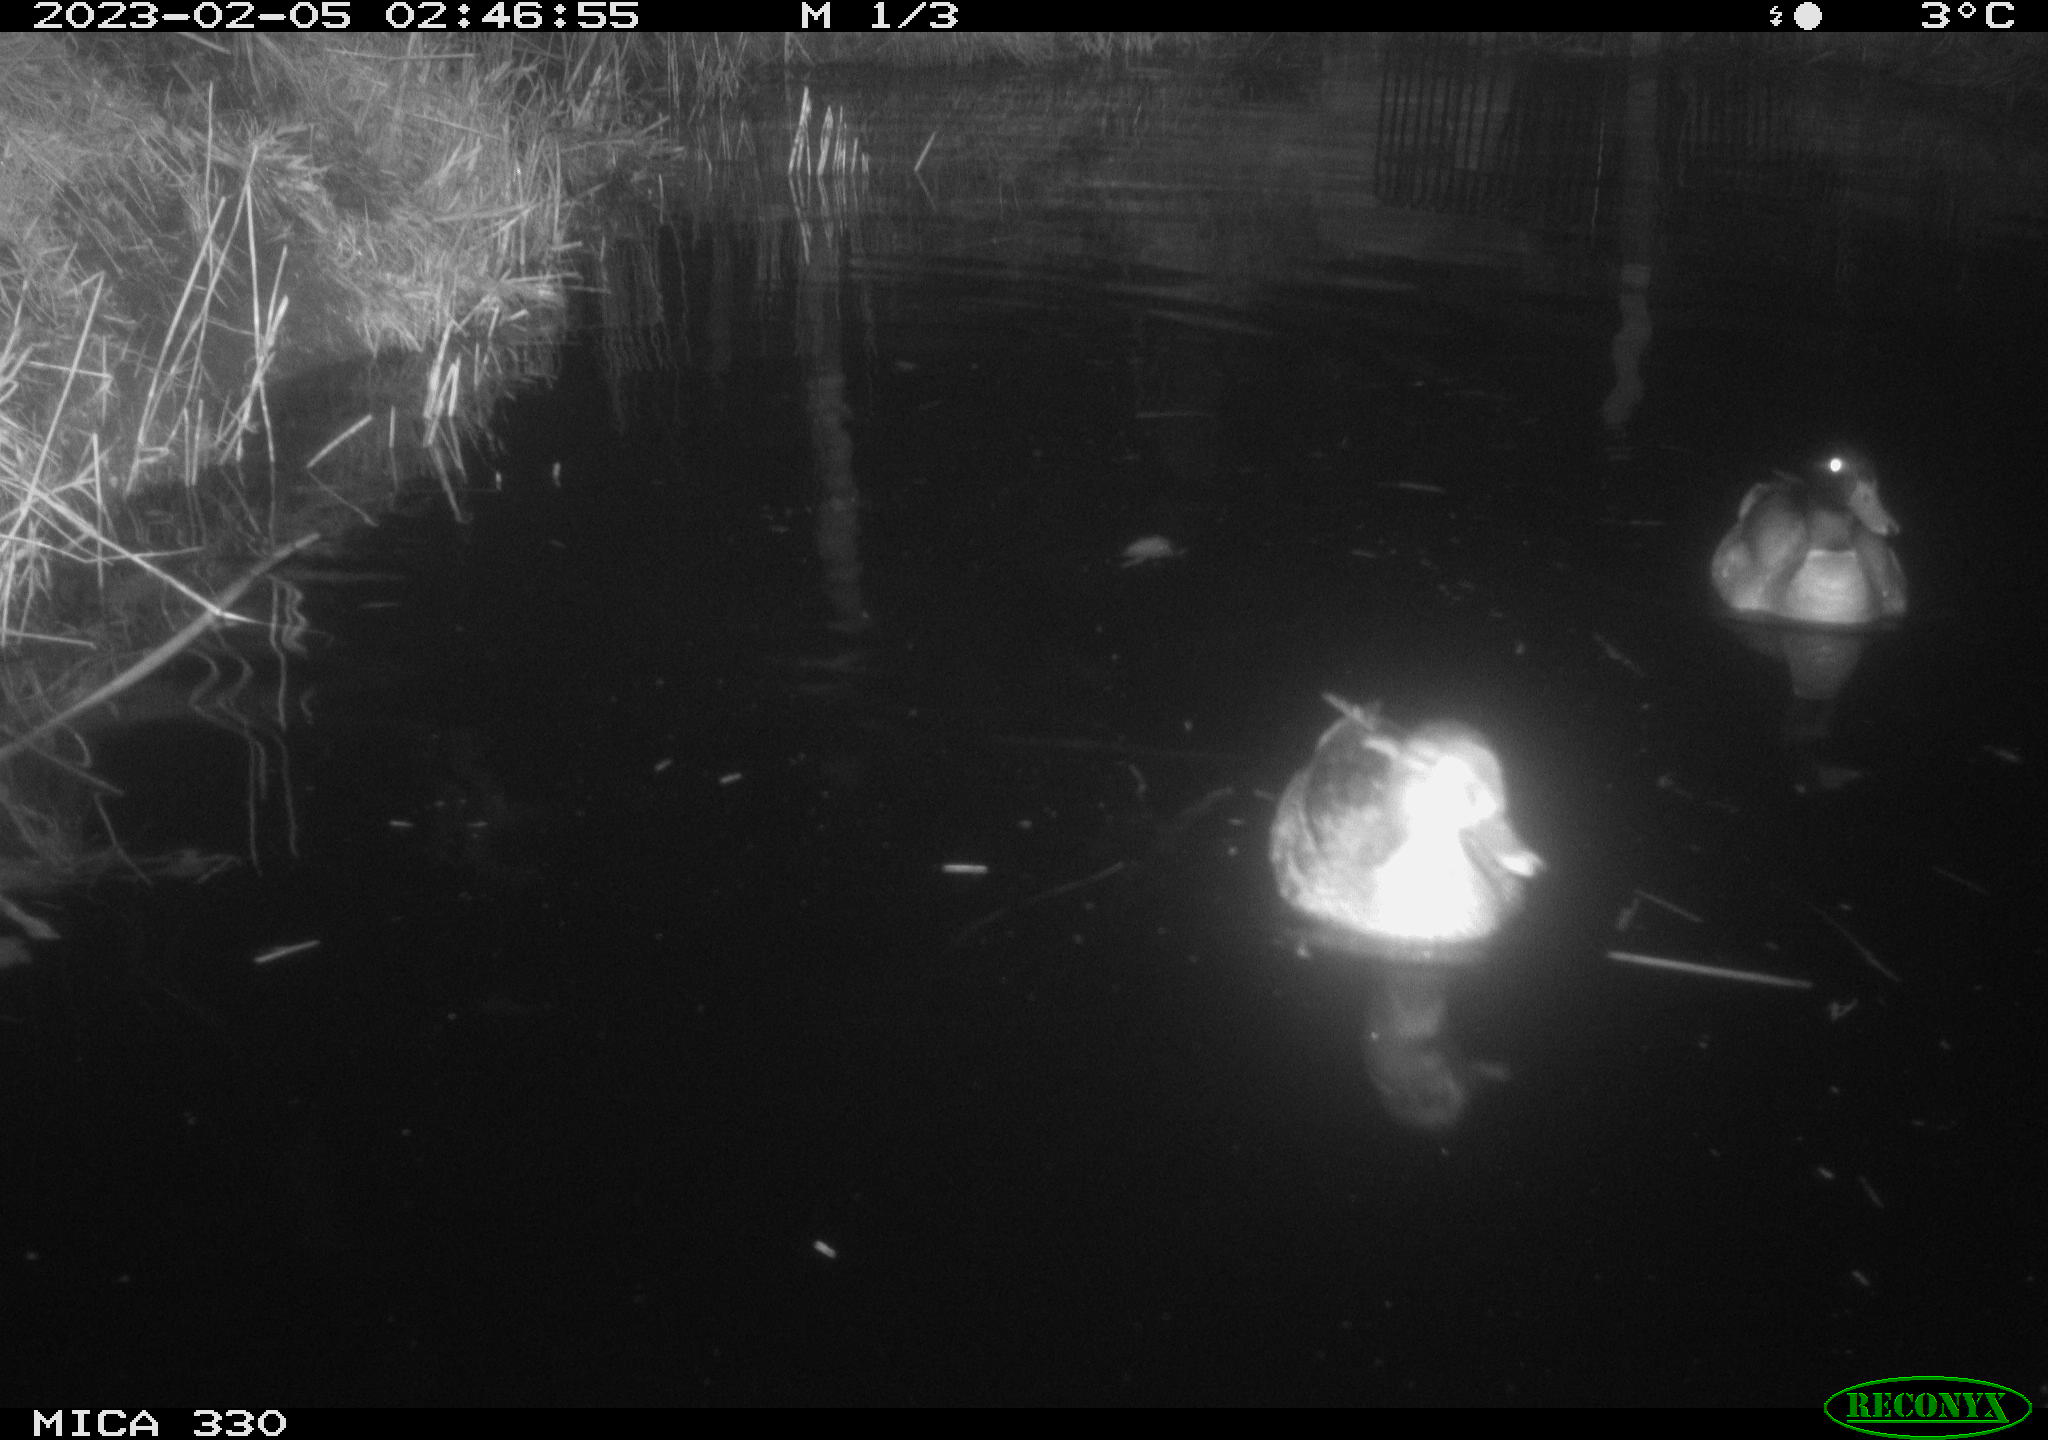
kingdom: Animalia
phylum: Chordata
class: Aves
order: Anseriformes
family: Anatidae
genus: Anas
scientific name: Anas
